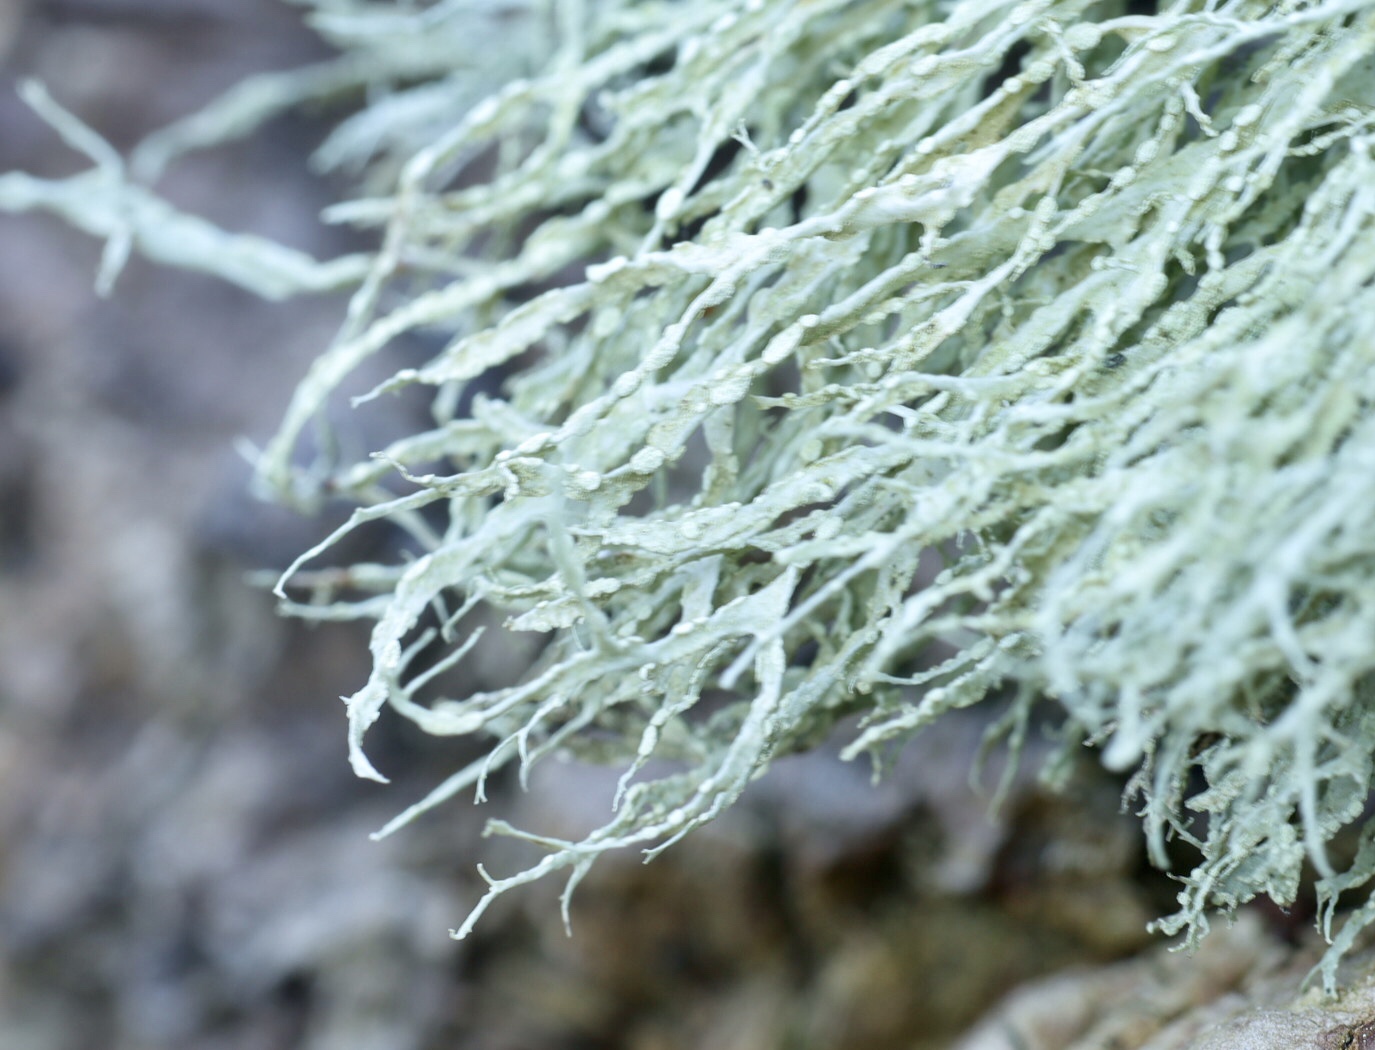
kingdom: Fungi
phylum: Ascomycota
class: Lecanoromycetes
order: Lecanorales
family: Ramalinaceae
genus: Ramalina
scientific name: Ramalina farinacea
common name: melet grenlav
